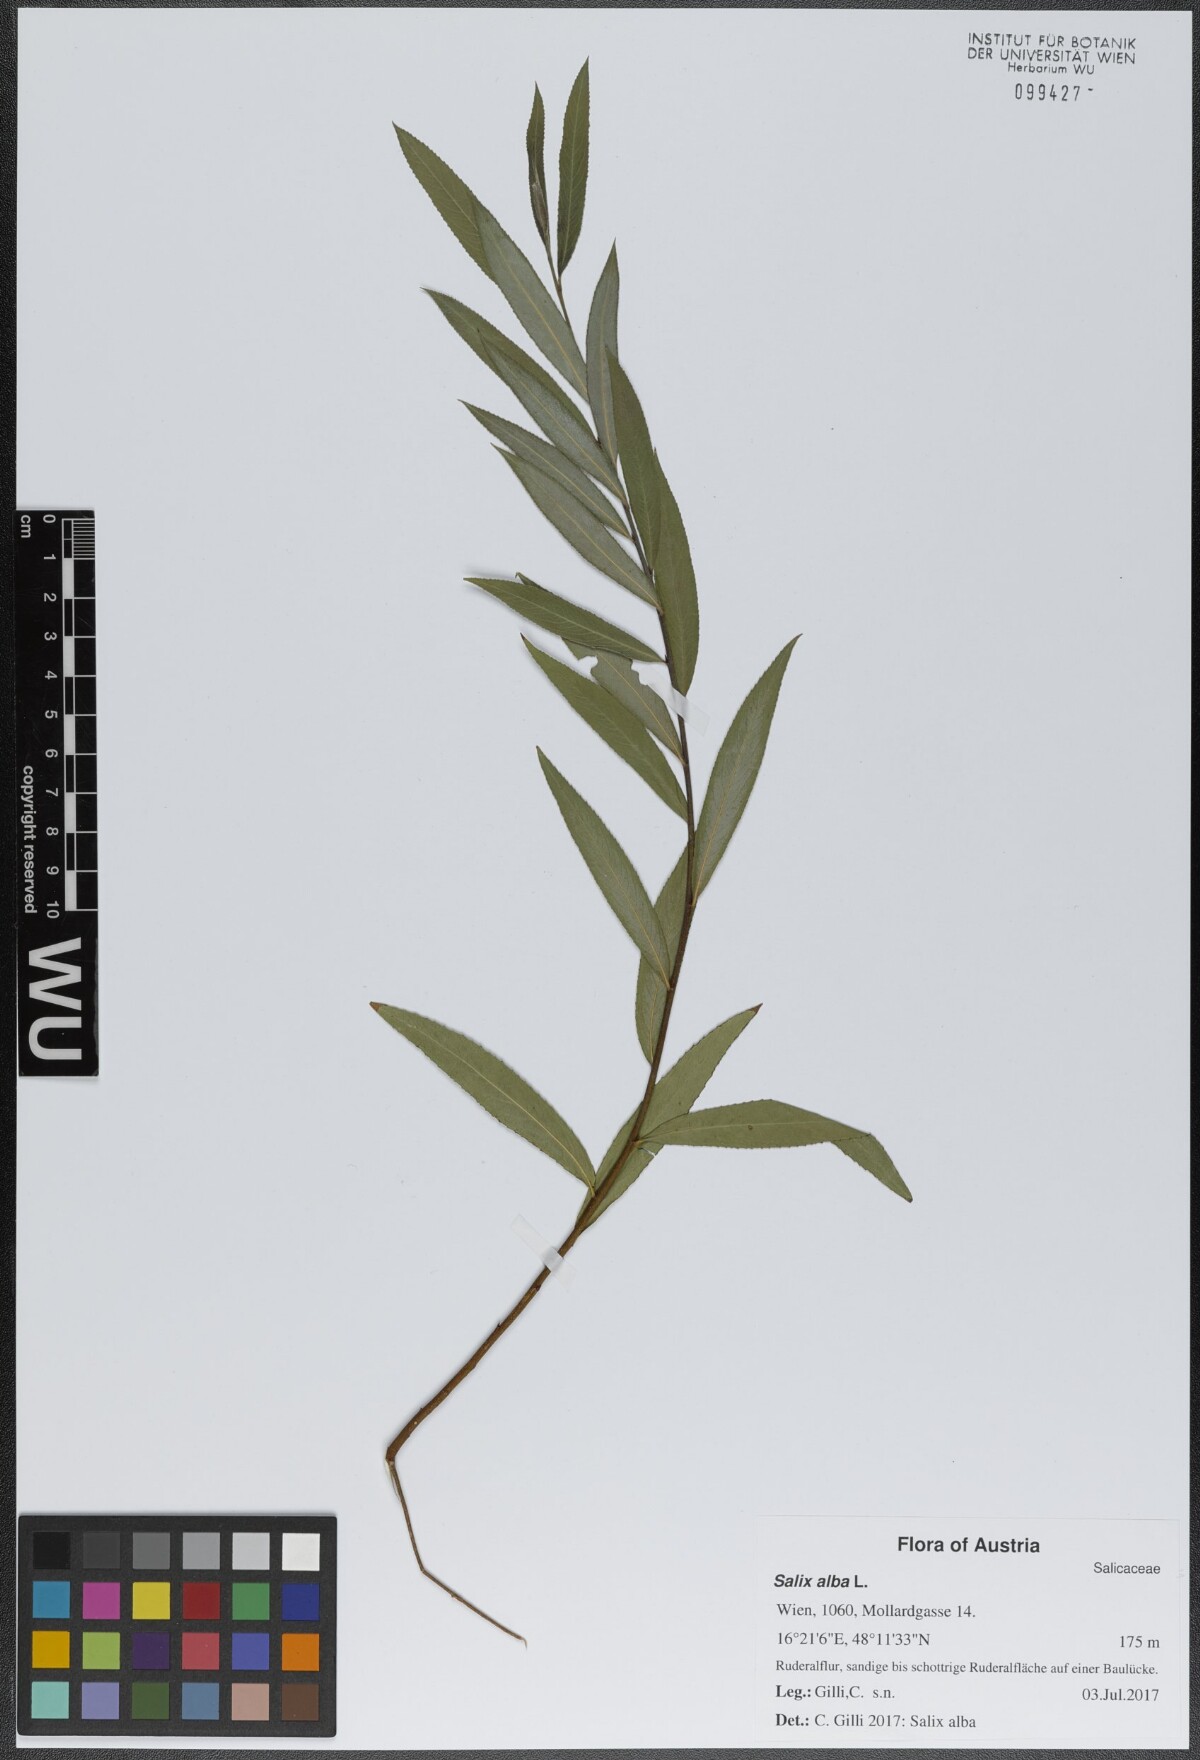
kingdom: Plantae
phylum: Tracheophyta
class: Magnoliopsida
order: Malpighiales
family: Salicaceae
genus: Salix
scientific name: Salix alba
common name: White willow
